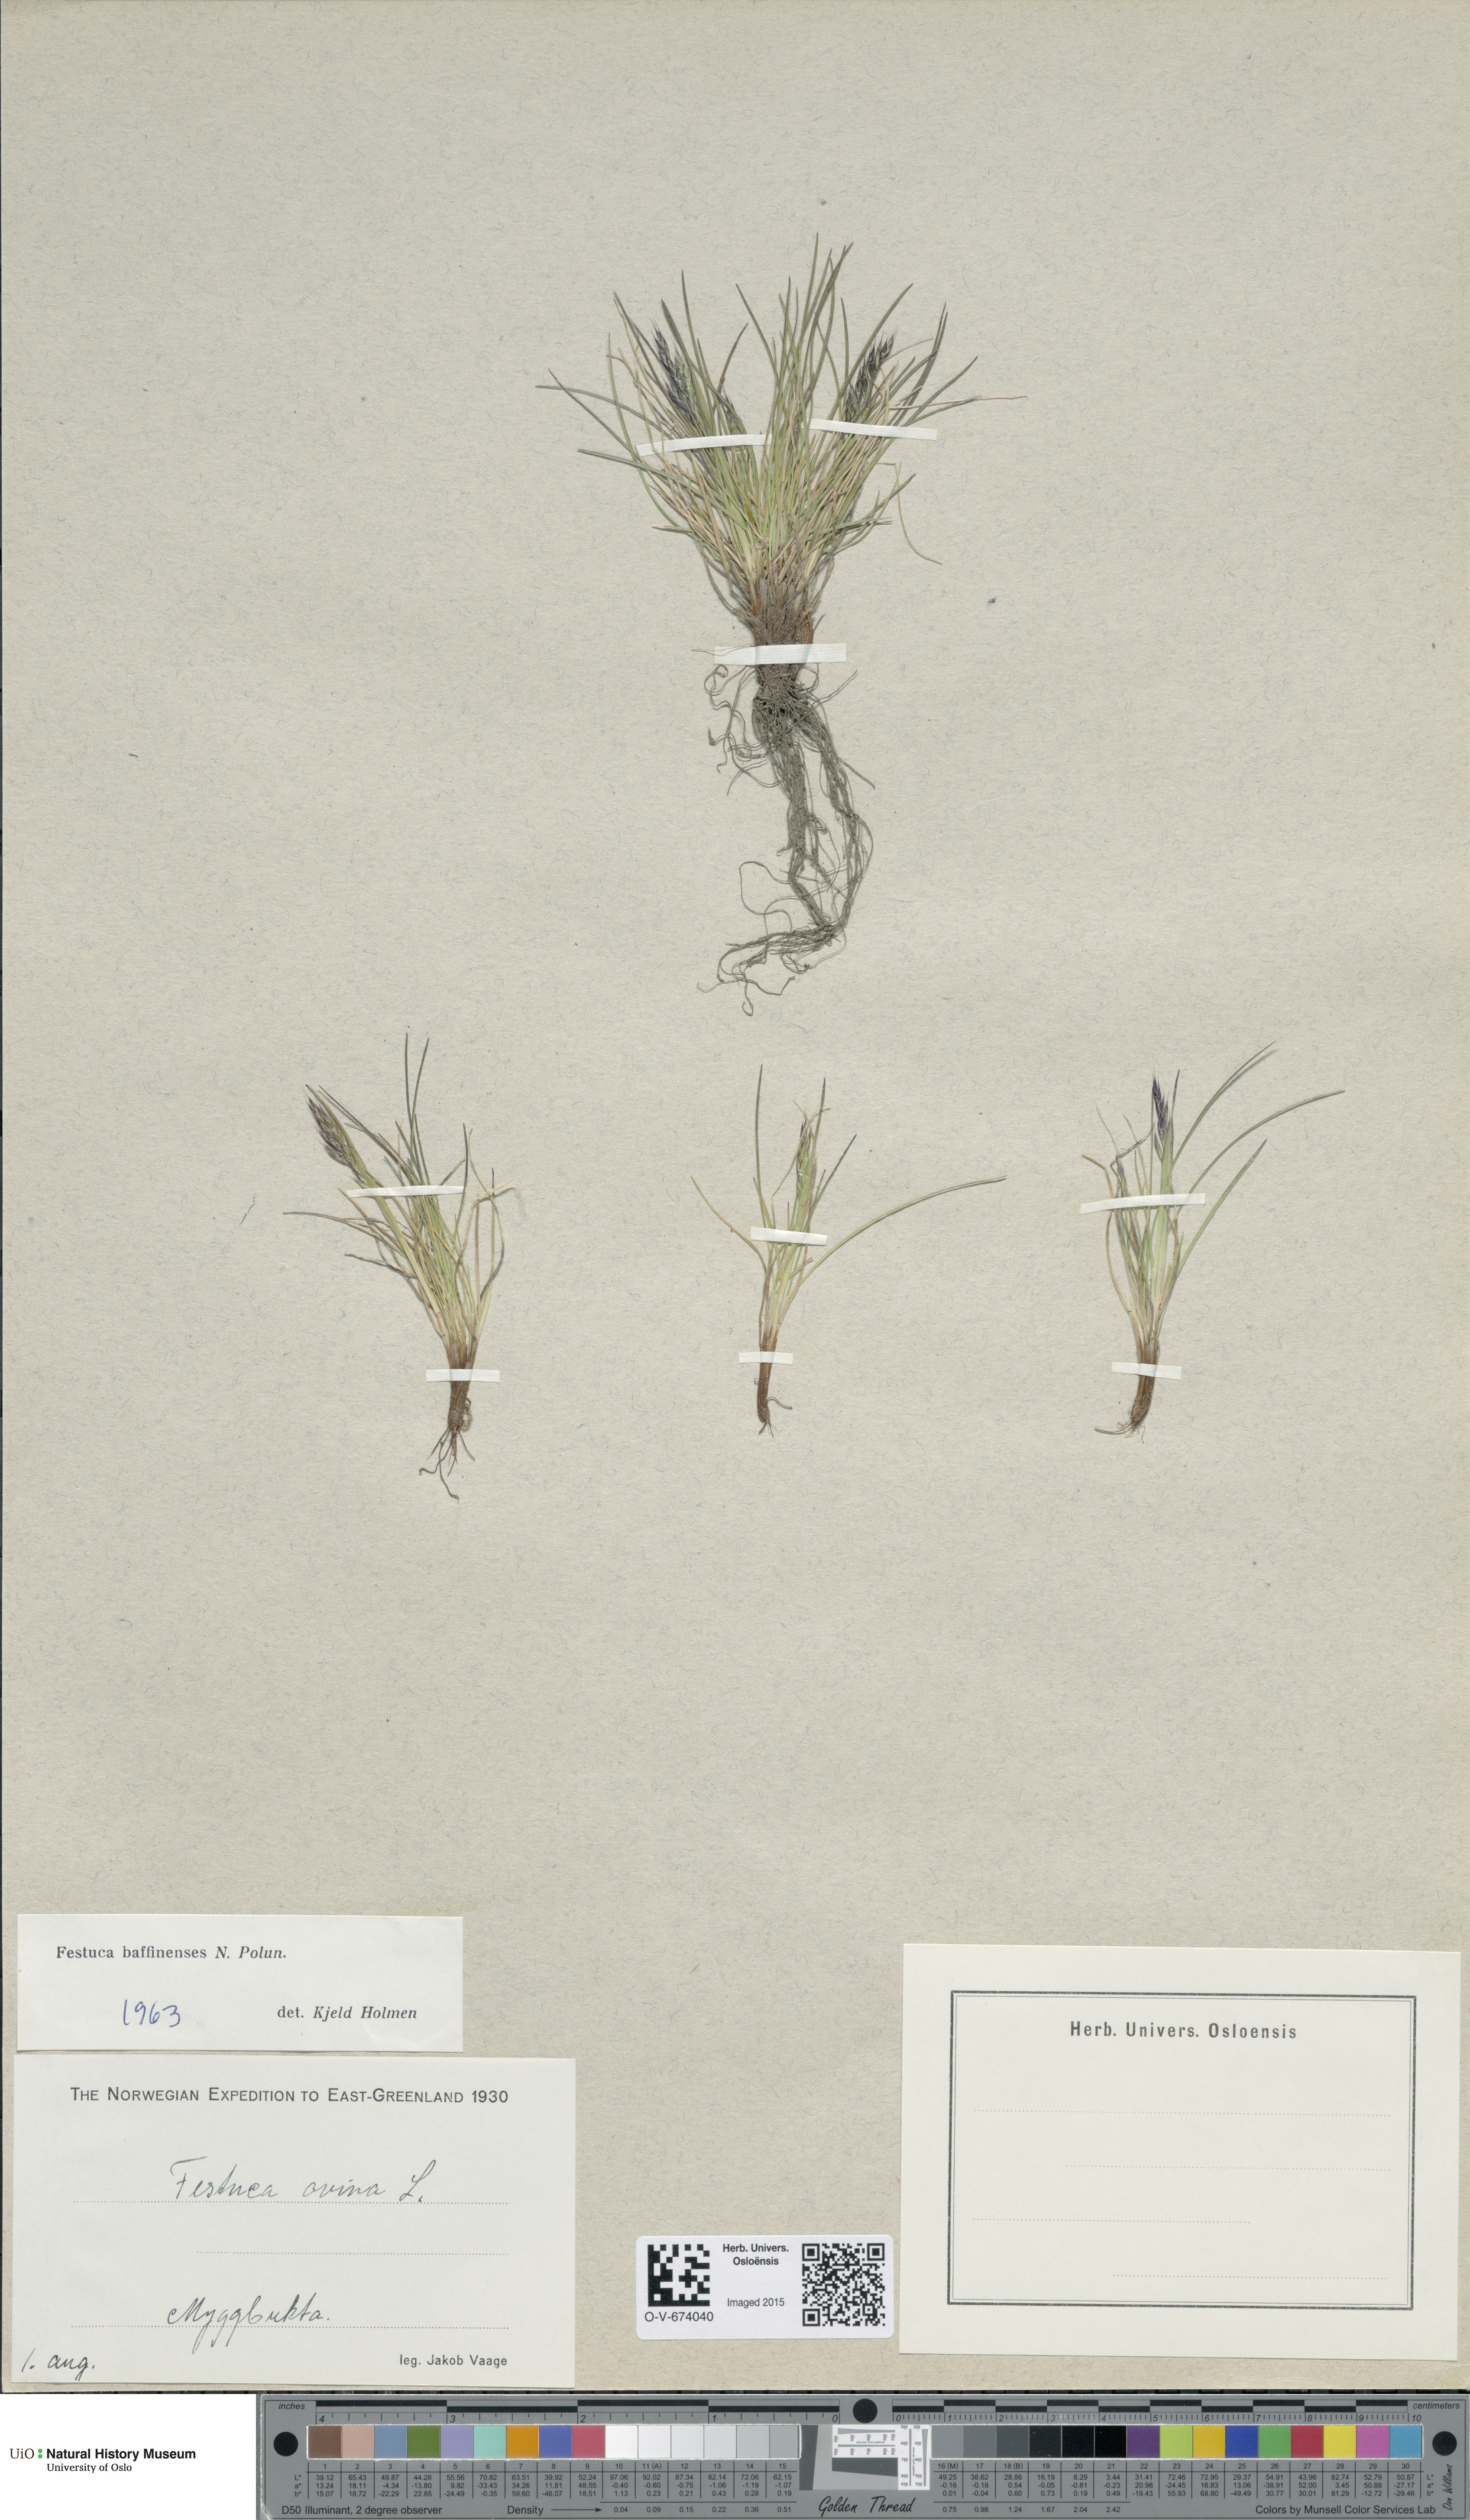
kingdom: Plantae
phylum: Tracheophyta
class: Liliopsida
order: Poales
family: Poaceae
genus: Festuca
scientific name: Festuca baffinensis
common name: Baffin island fescue
